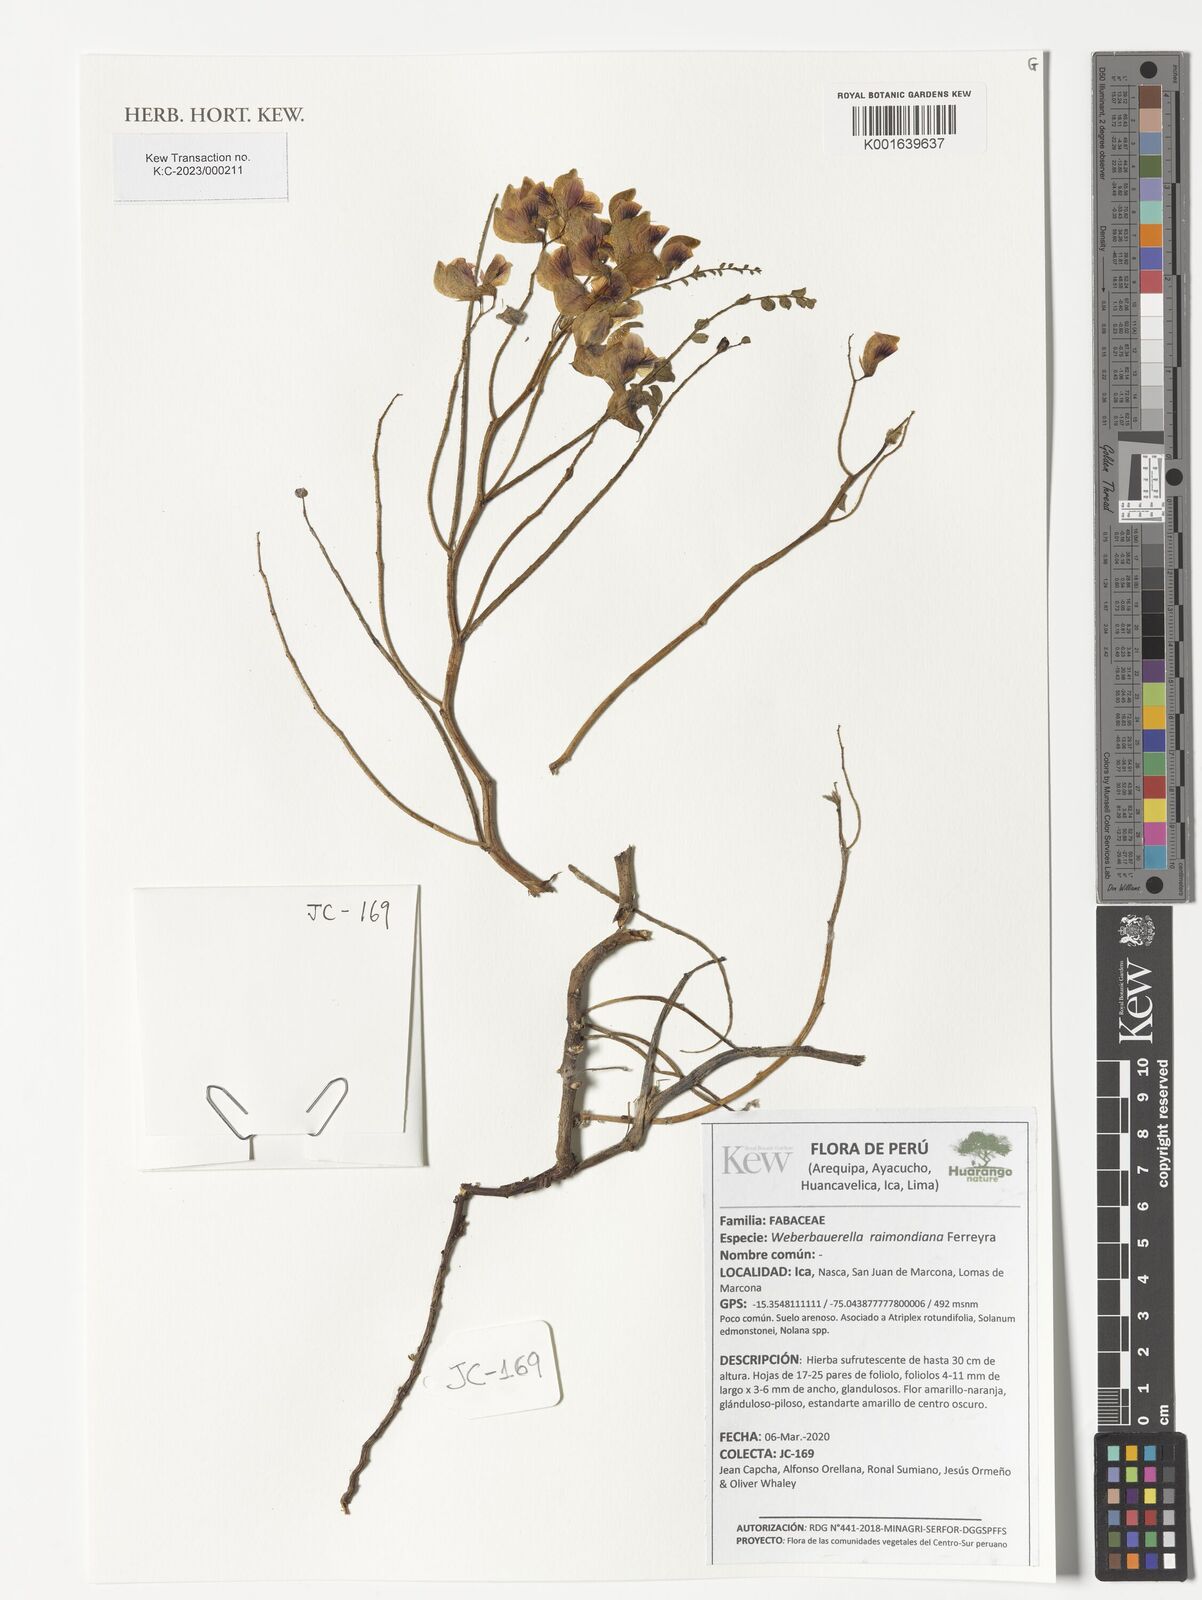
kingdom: Plantae
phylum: Tracheophyta
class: Magnoliopsida
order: Fabales
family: Fabaceae
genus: Weberbauerella
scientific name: Weberbauerella raimondiana
